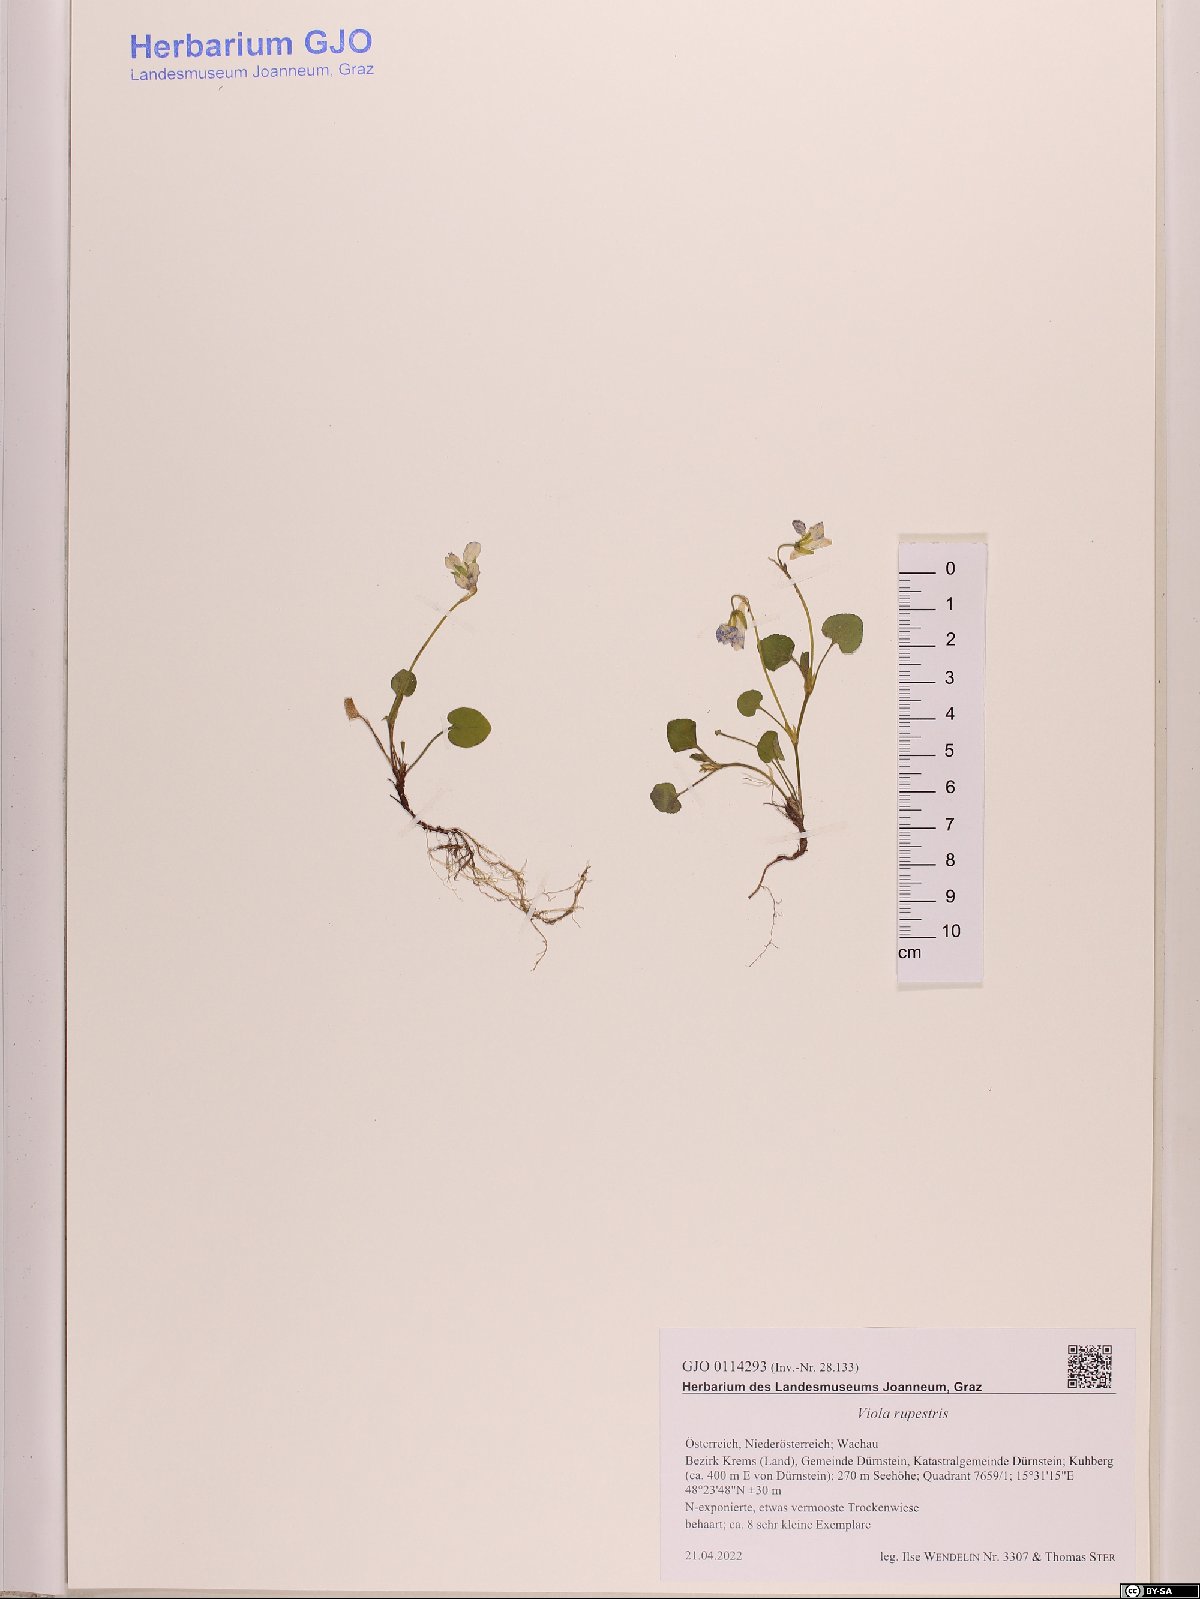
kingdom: Plantae
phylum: Tracheophyta
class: Magnoliopsida
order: Malpighiales
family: Violaceae
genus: Viola
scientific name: Viola rupestris
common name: Teesdale violet
